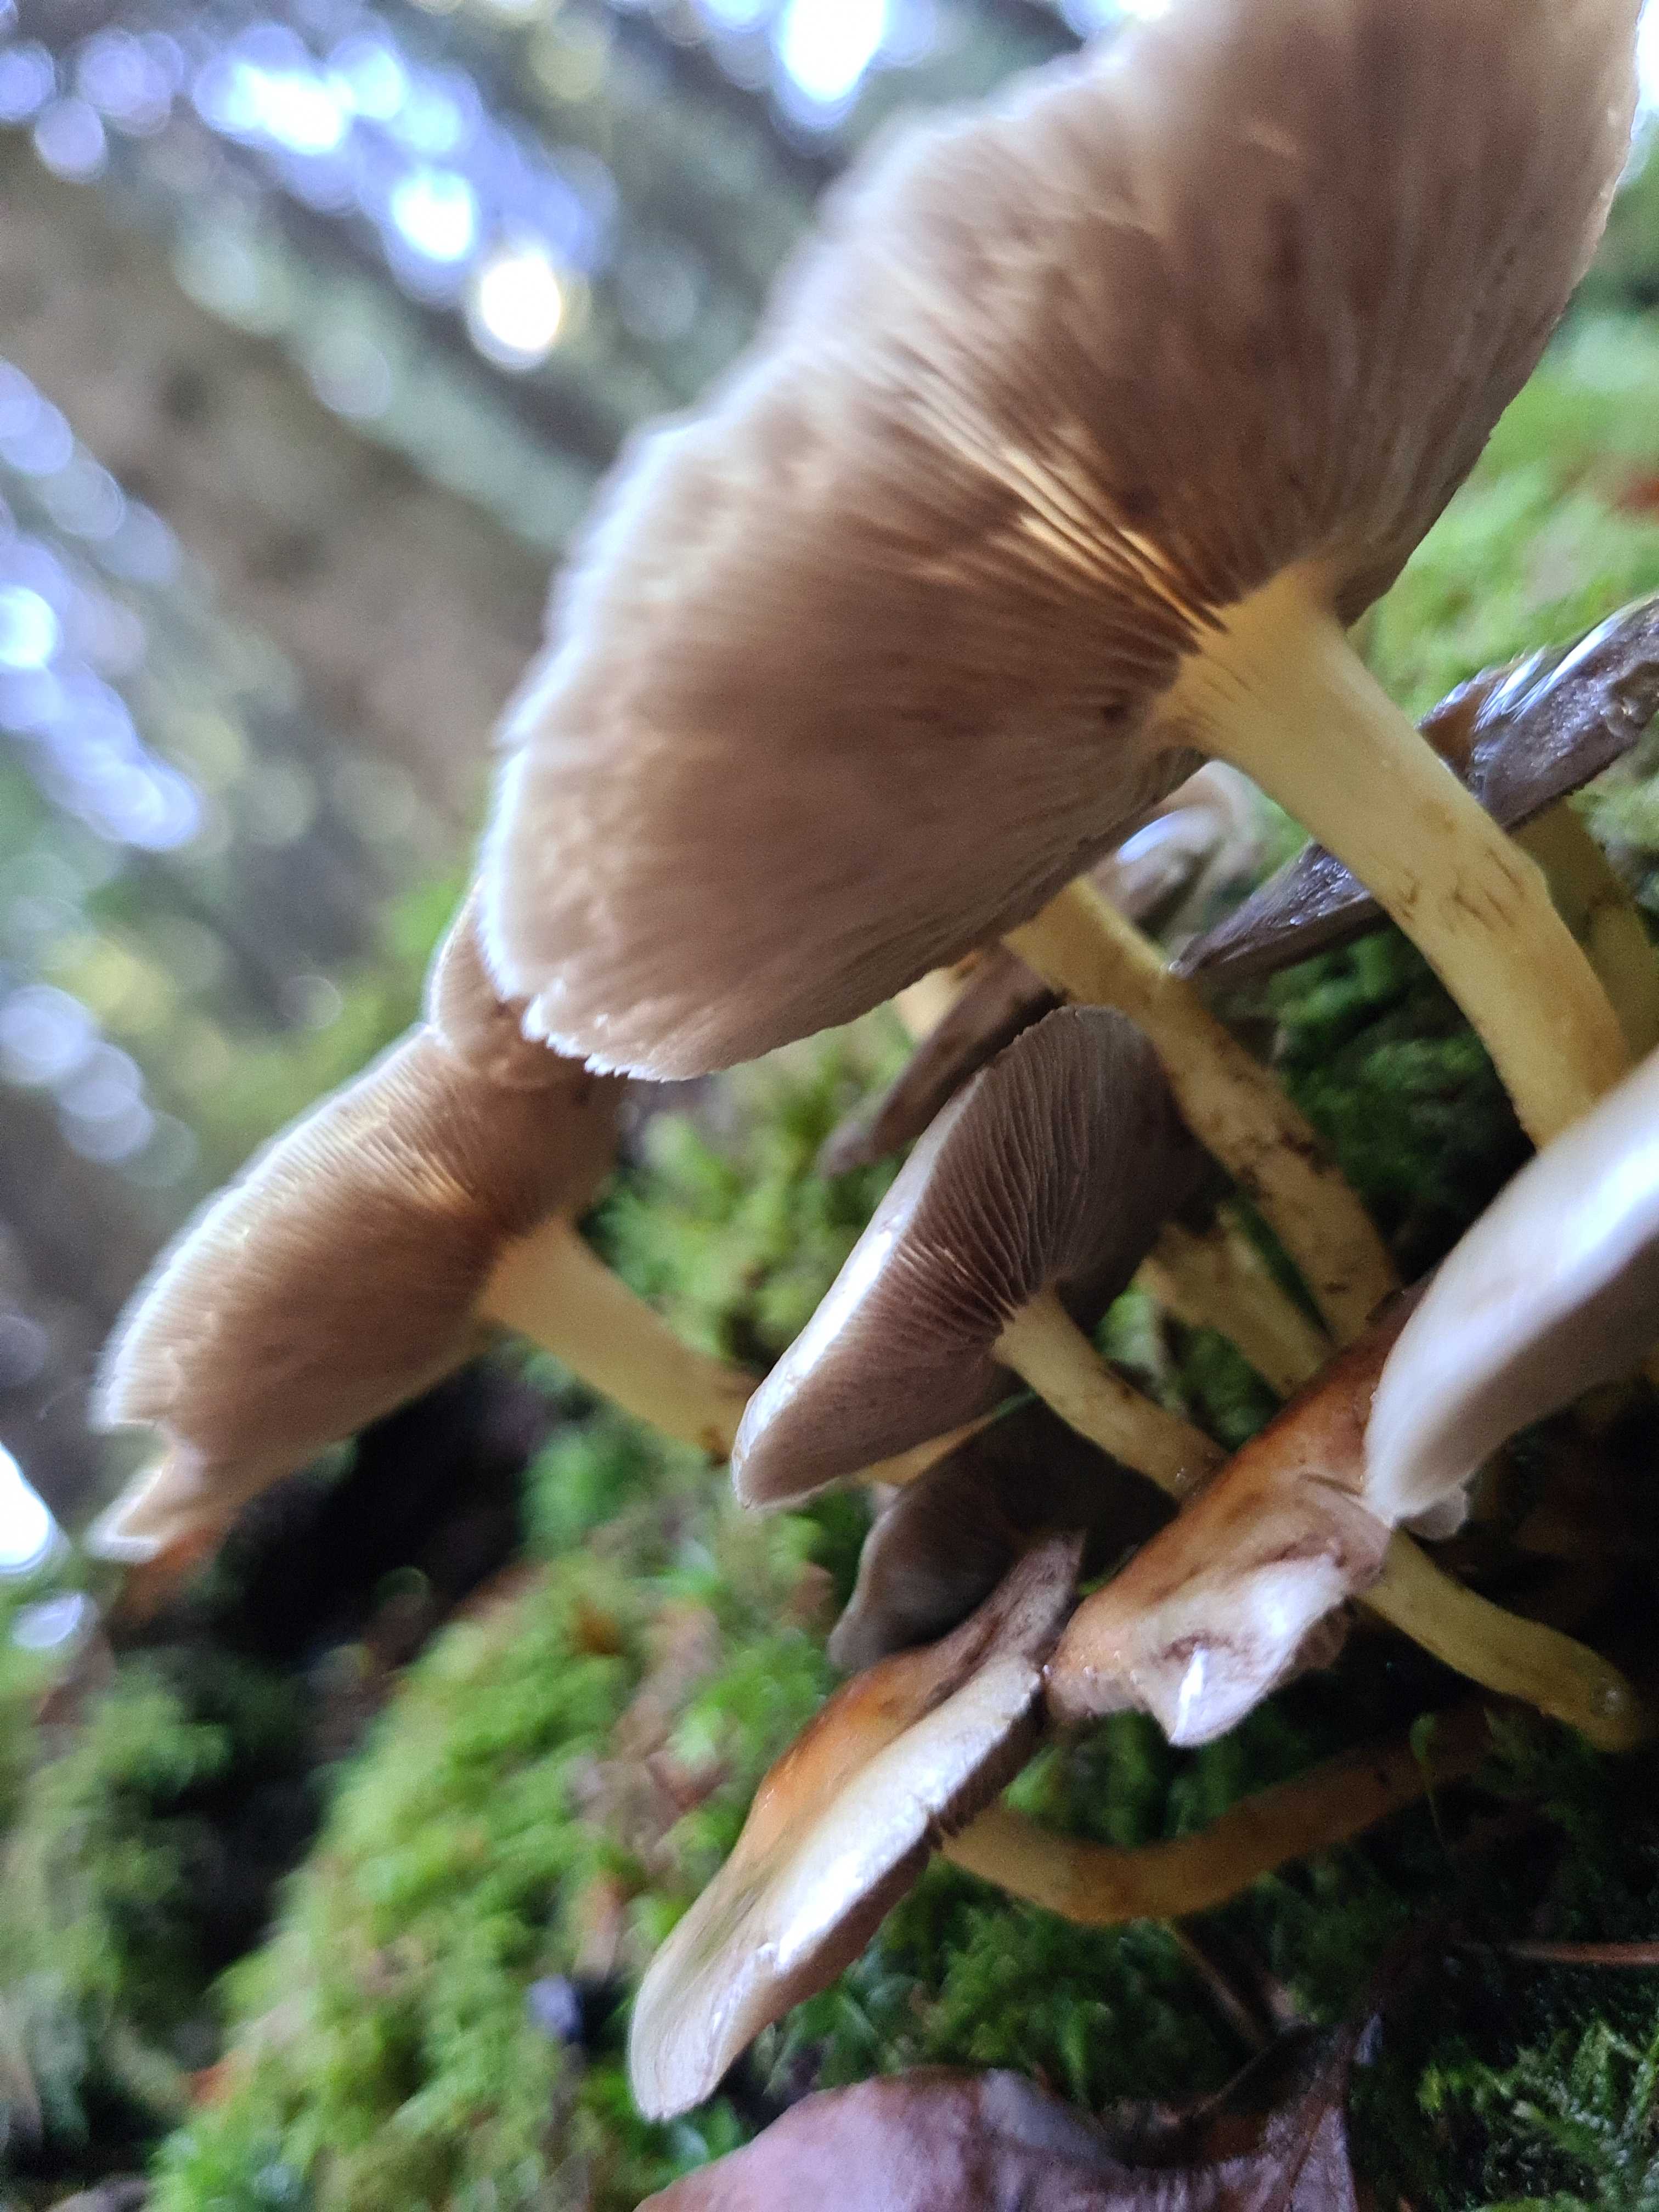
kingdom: Fungi
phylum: Basidiomycota
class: Agaricomycetes
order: Agaricales
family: Strophariaceae
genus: Hypholoma
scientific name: Hypholoma capnoides
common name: gran-svovlhat
